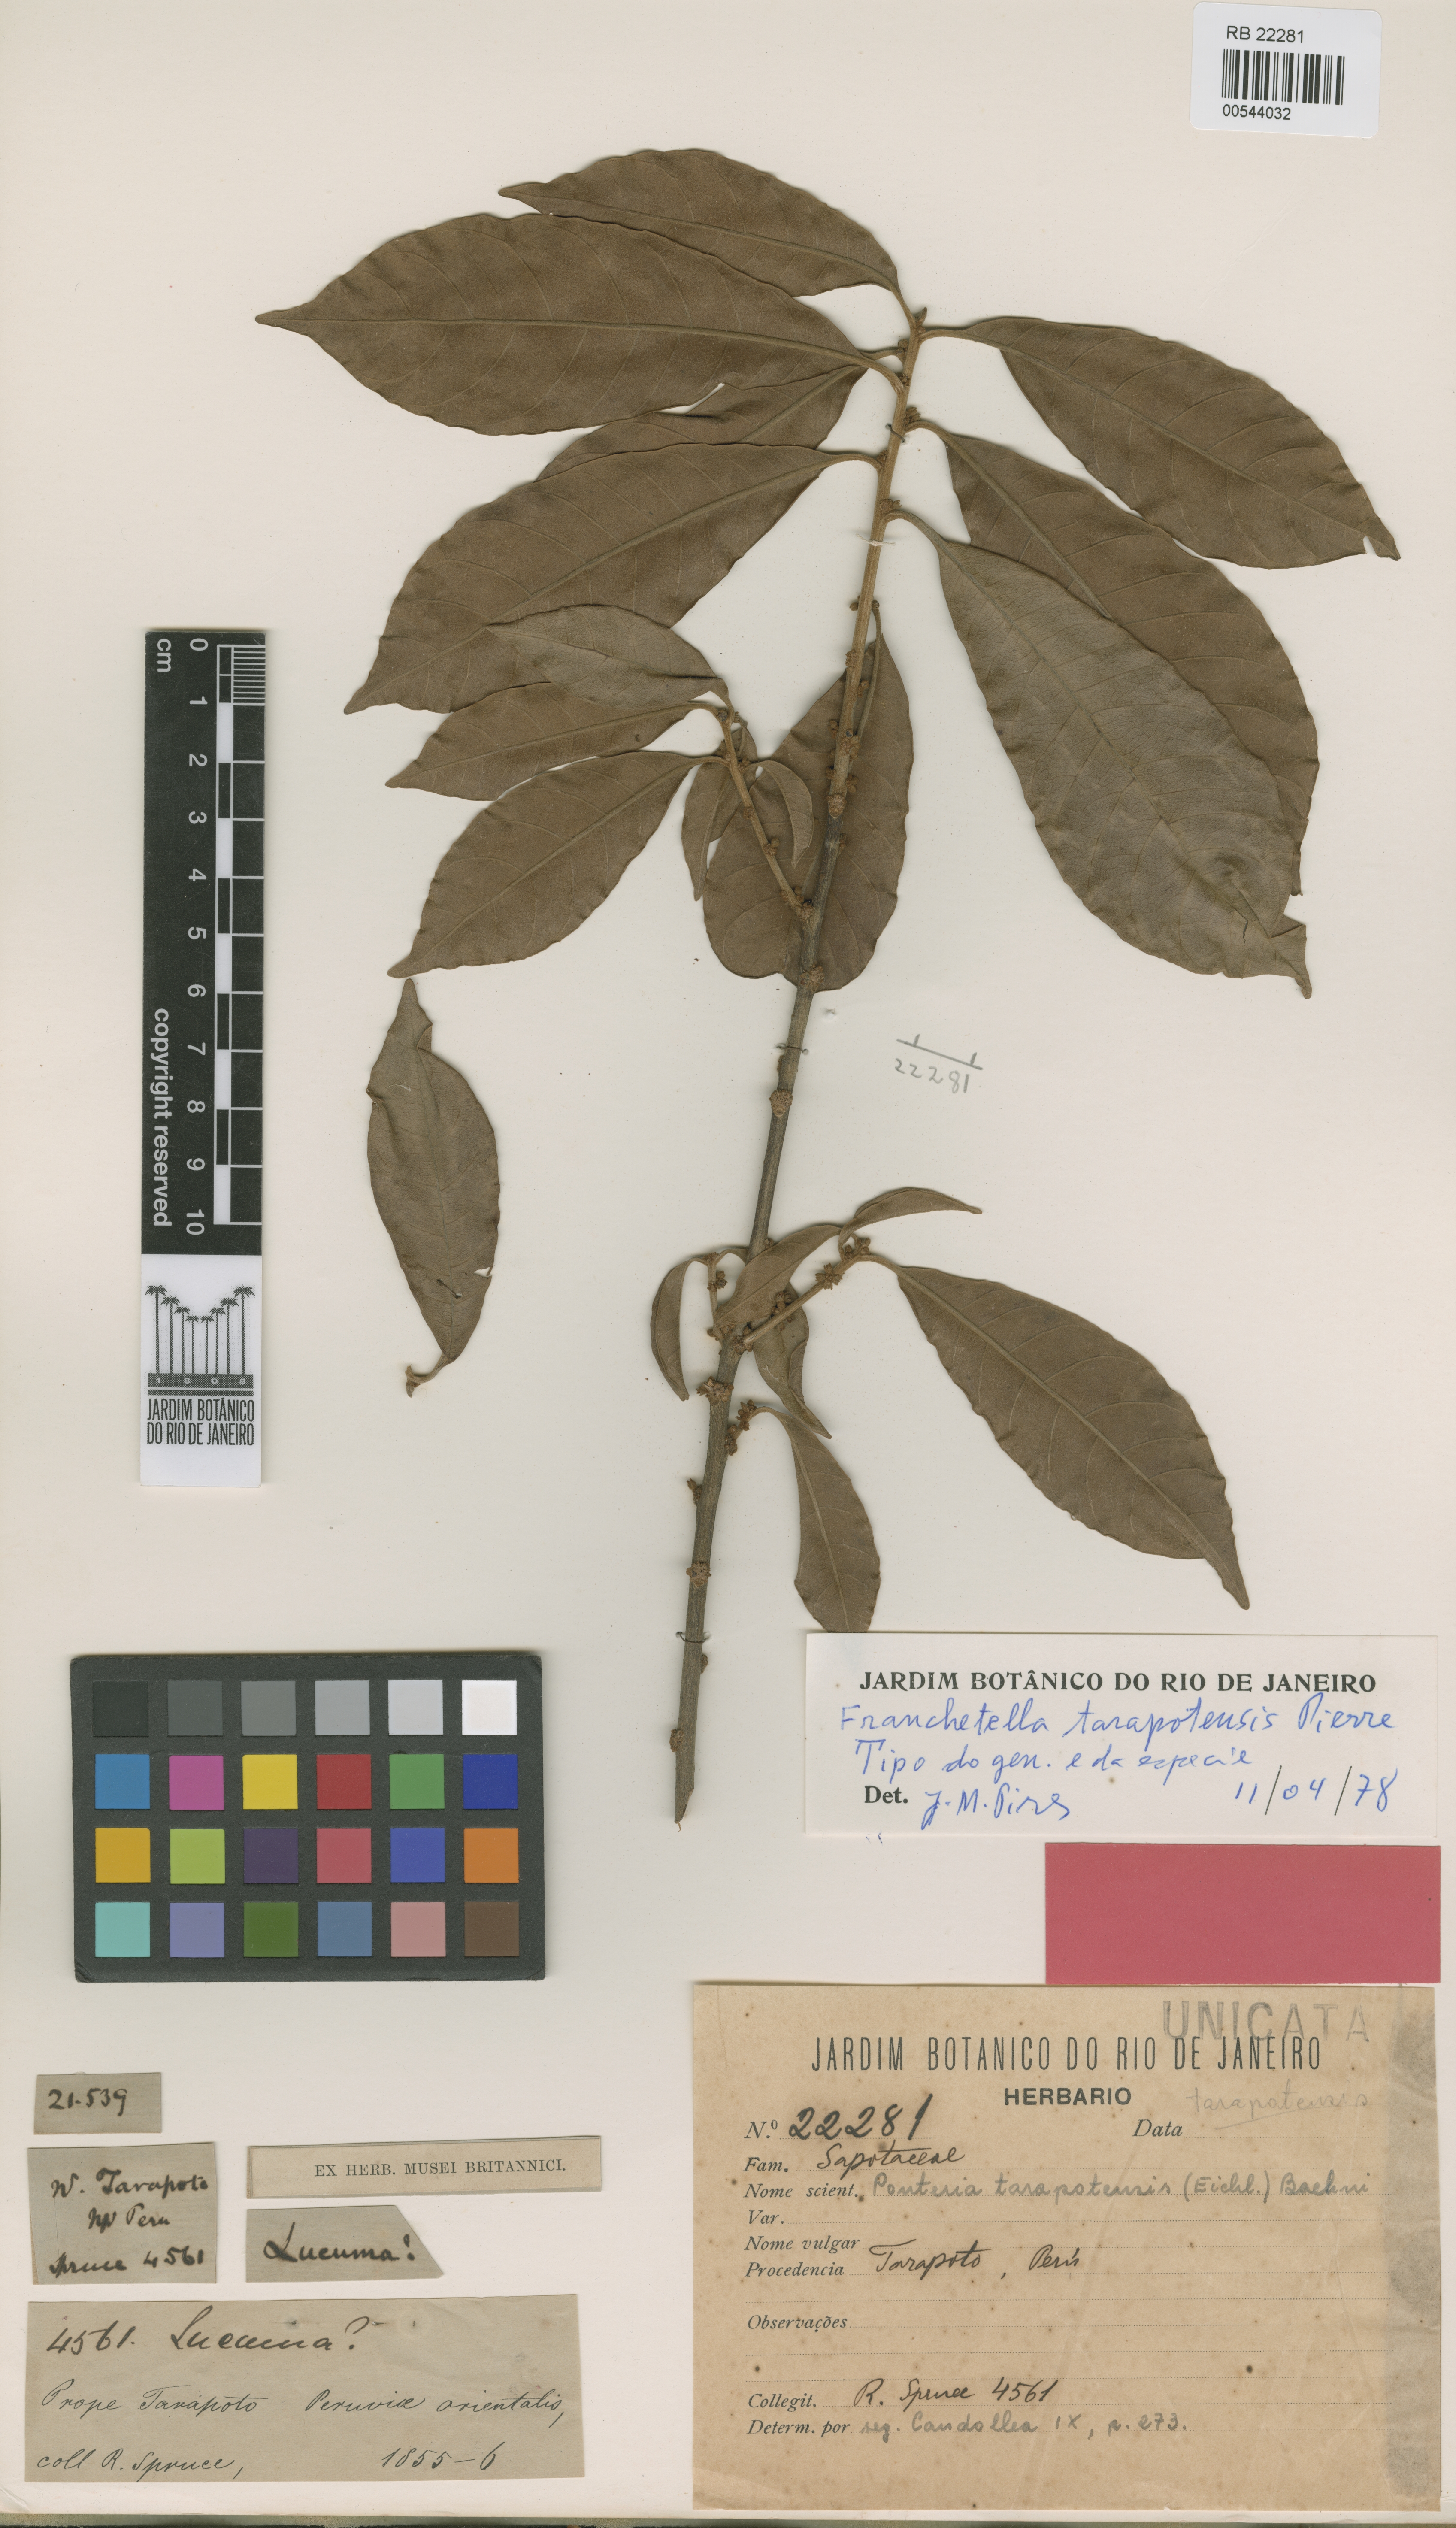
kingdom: Plantae
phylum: Tracheophyta
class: Magnoliopsida
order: Ericales
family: Sapotaceae
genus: Pouteria
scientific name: Pouteria tarapotensis
